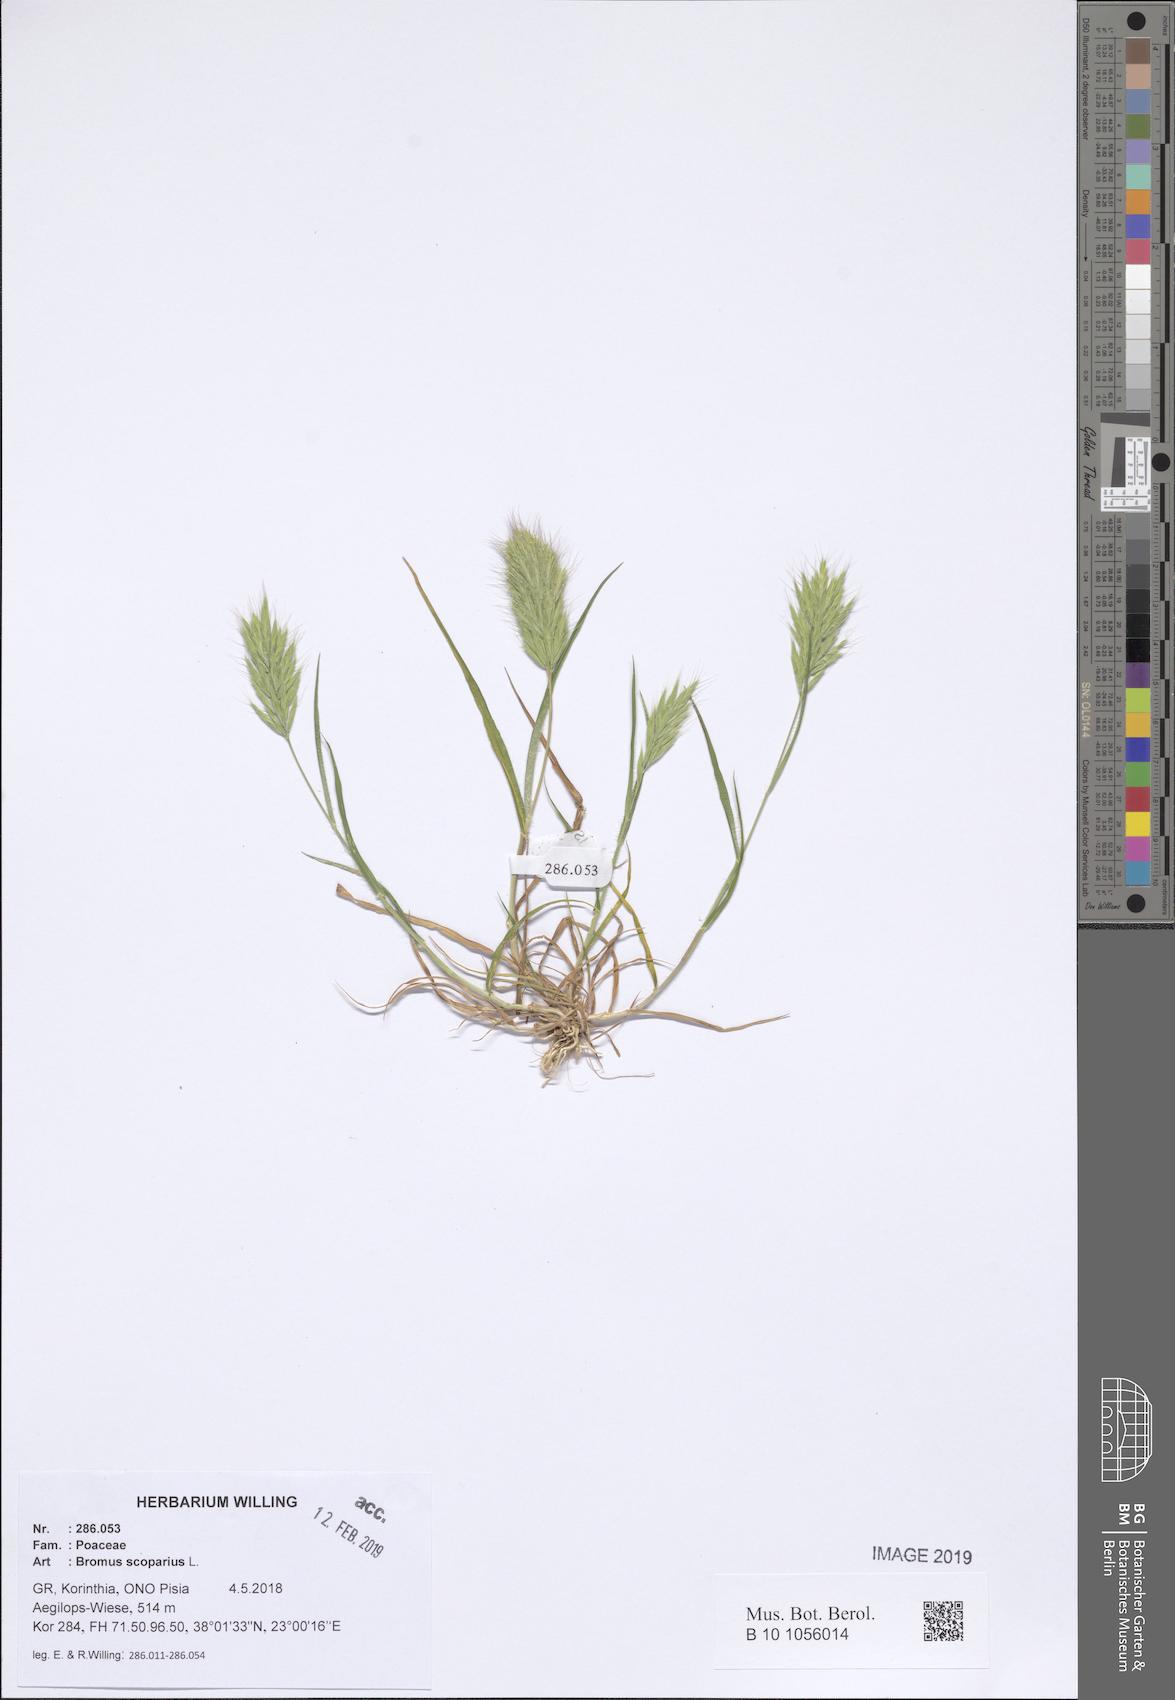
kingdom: Plantae
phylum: Tracheophyta
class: Liliopsida
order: Poales
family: Poaceae
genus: Bromus
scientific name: Bromus scoparius
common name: Broom brome
